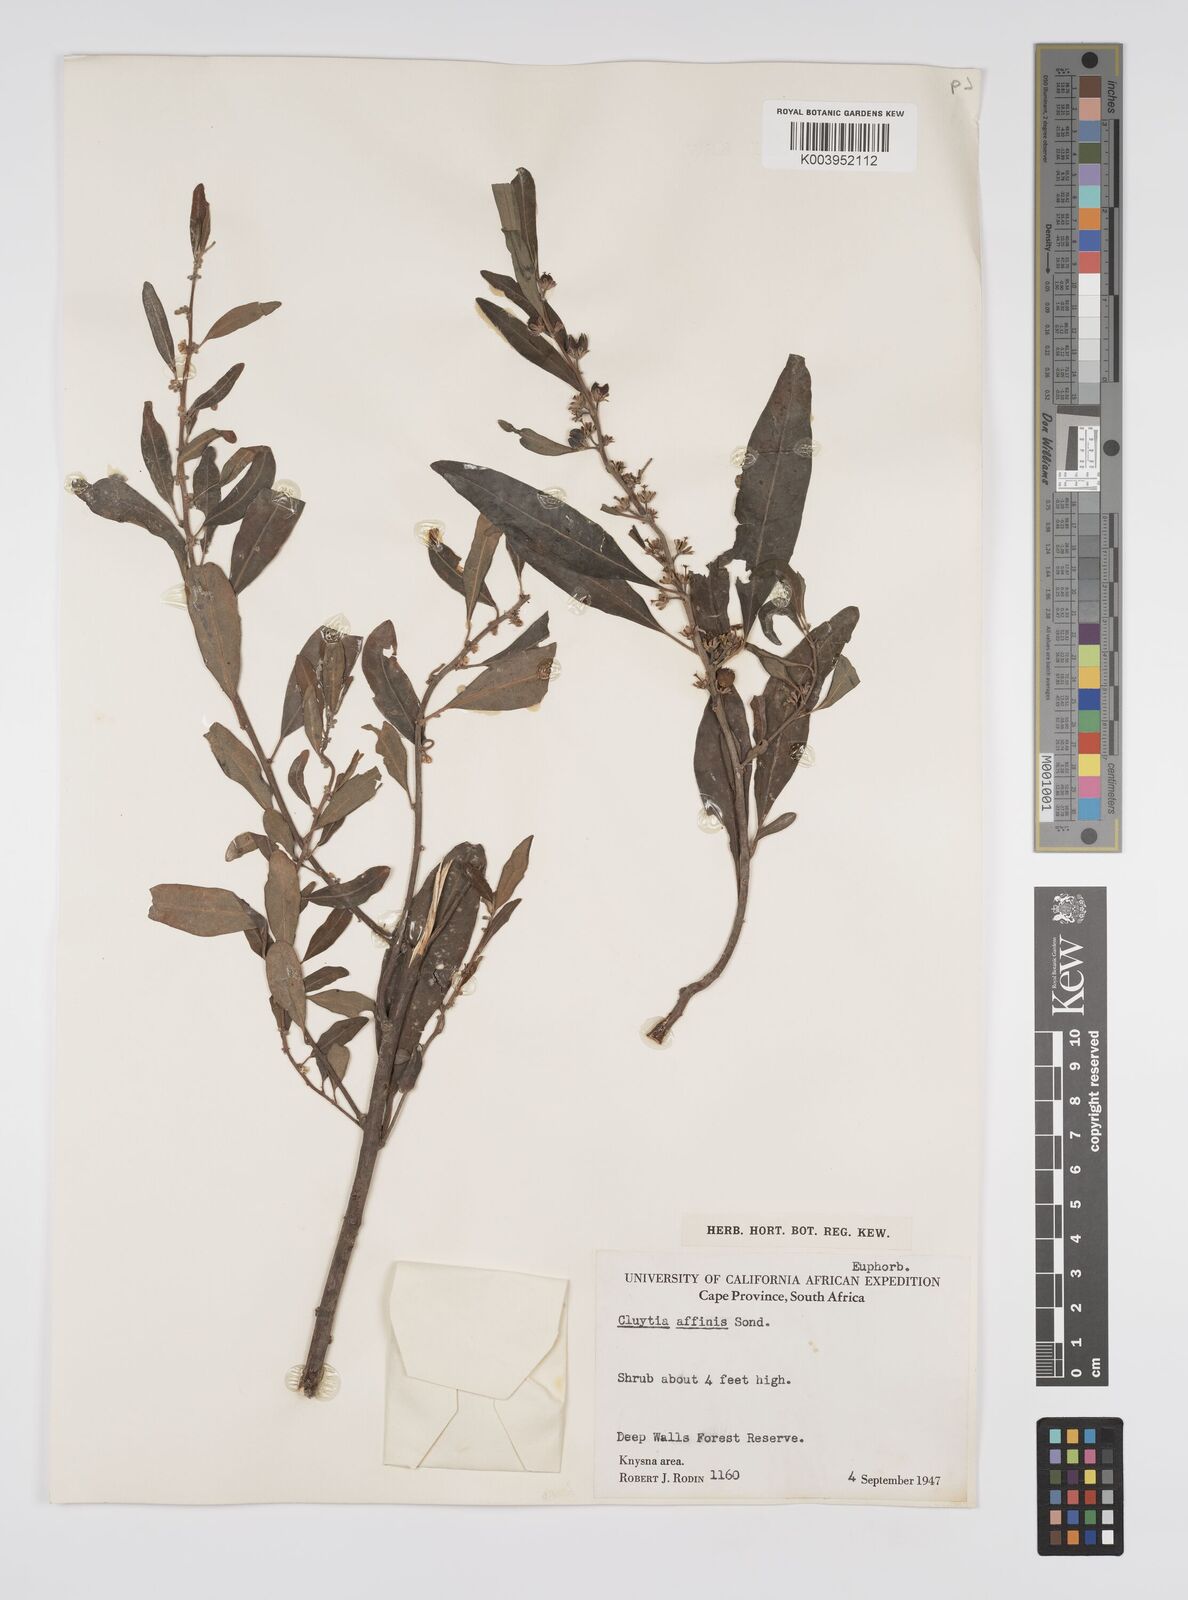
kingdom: Plantae
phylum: Tracheophyta
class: Magnoliopsida
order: Malpighiales
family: Peraceae
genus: Clutia
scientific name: Clutia affinis
